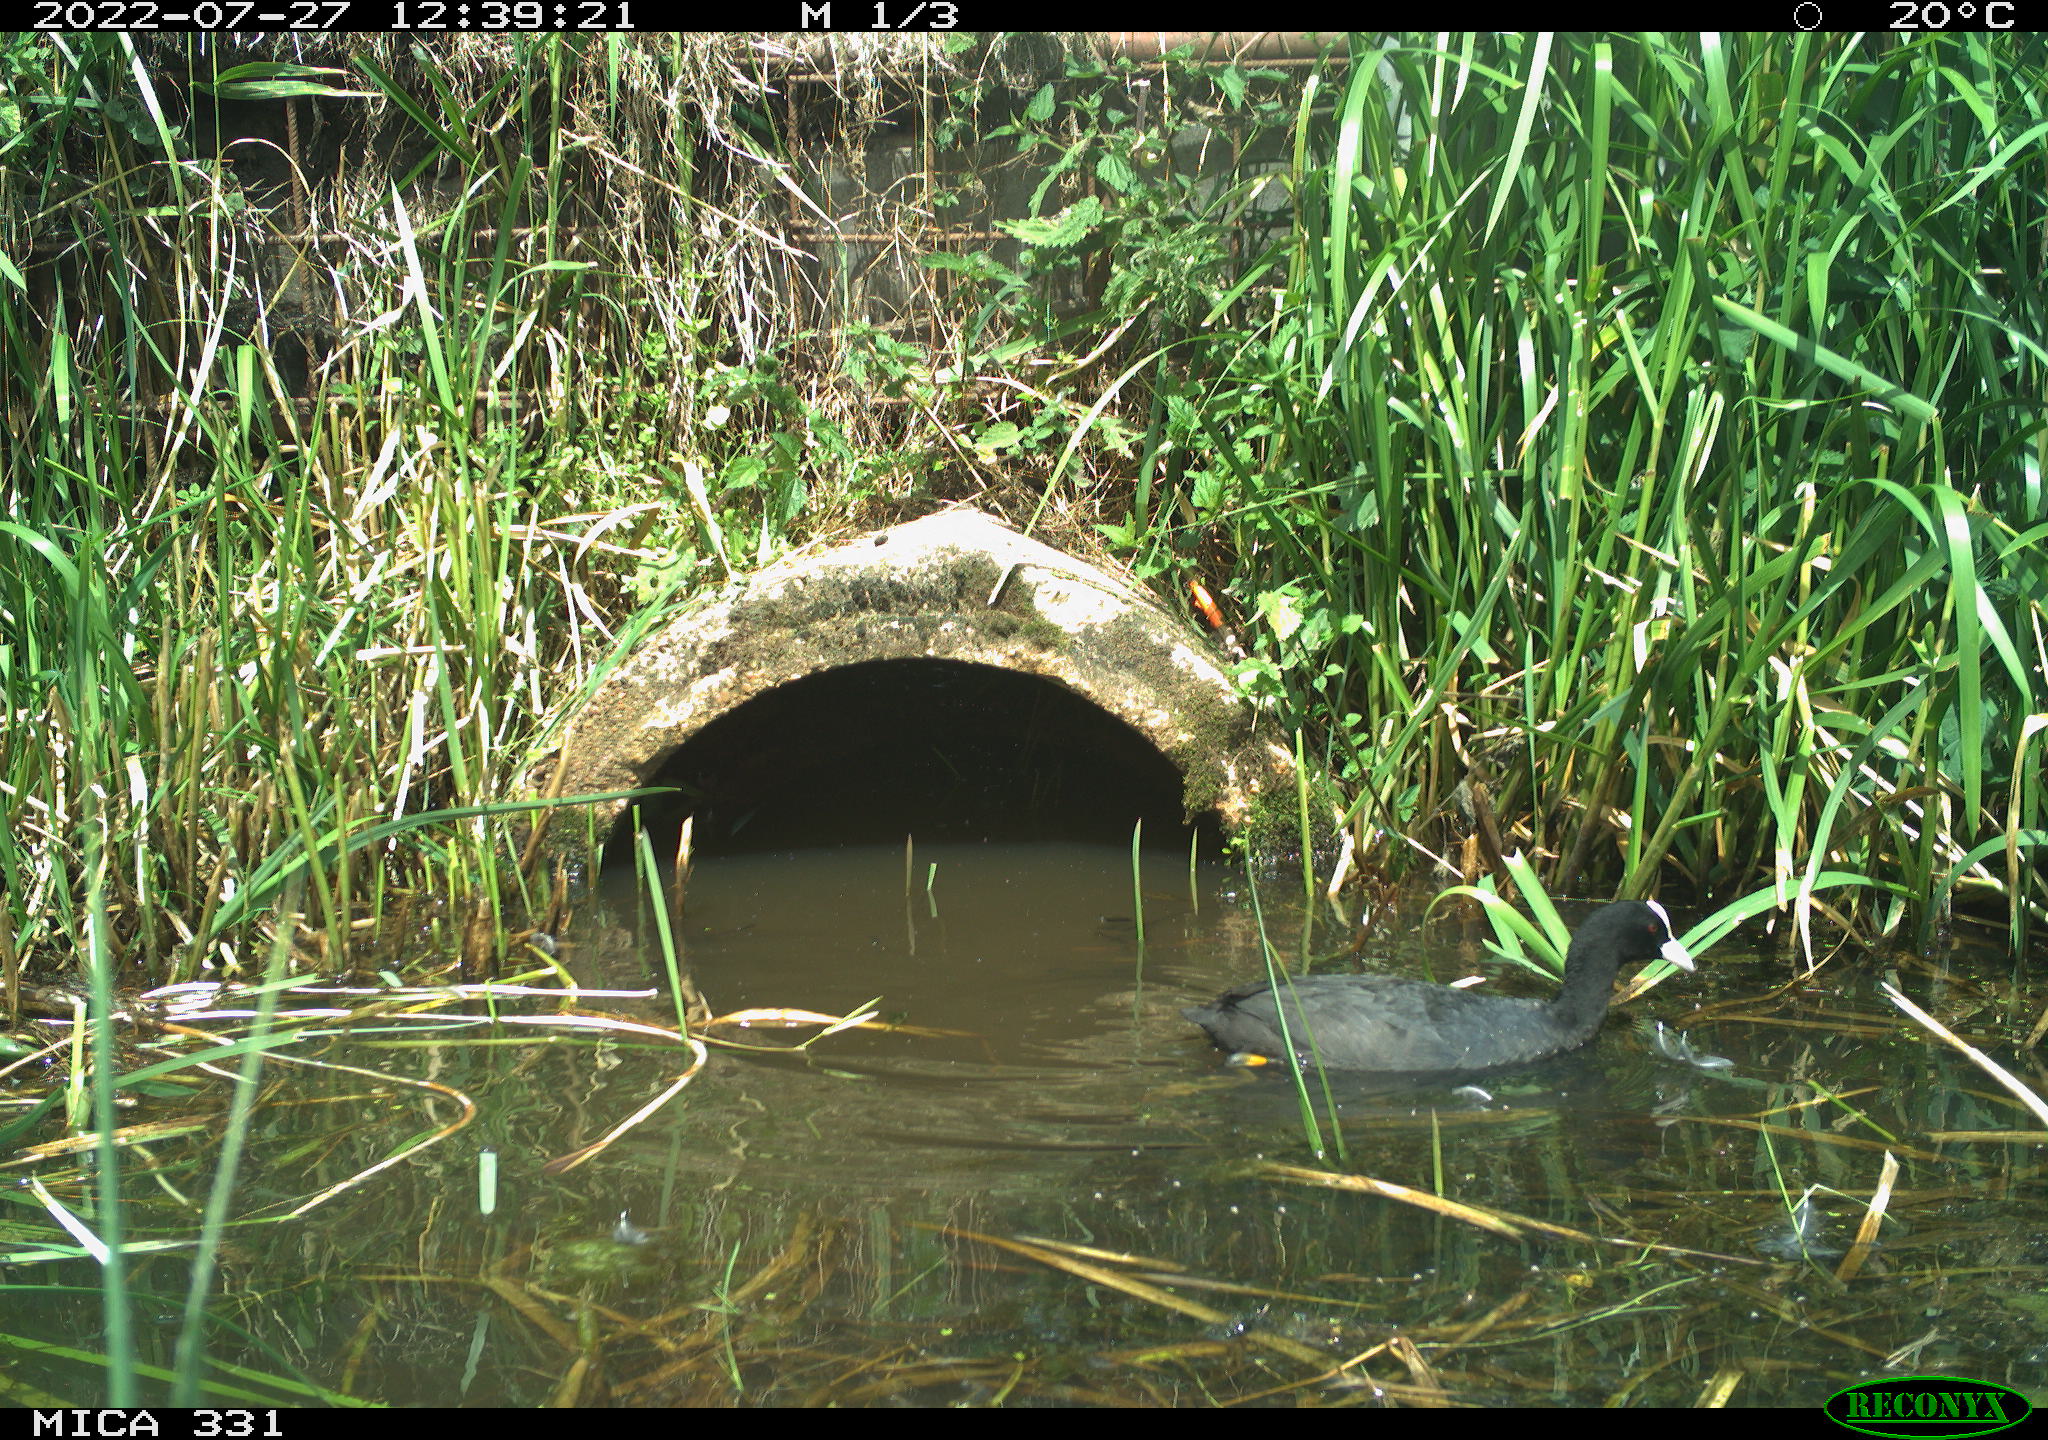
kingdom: Animalia
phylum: Chordata
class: Aves
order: Gruiformes
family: Rallidae
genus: Fulica
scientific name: Fulica atra
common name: Eurasian coot
